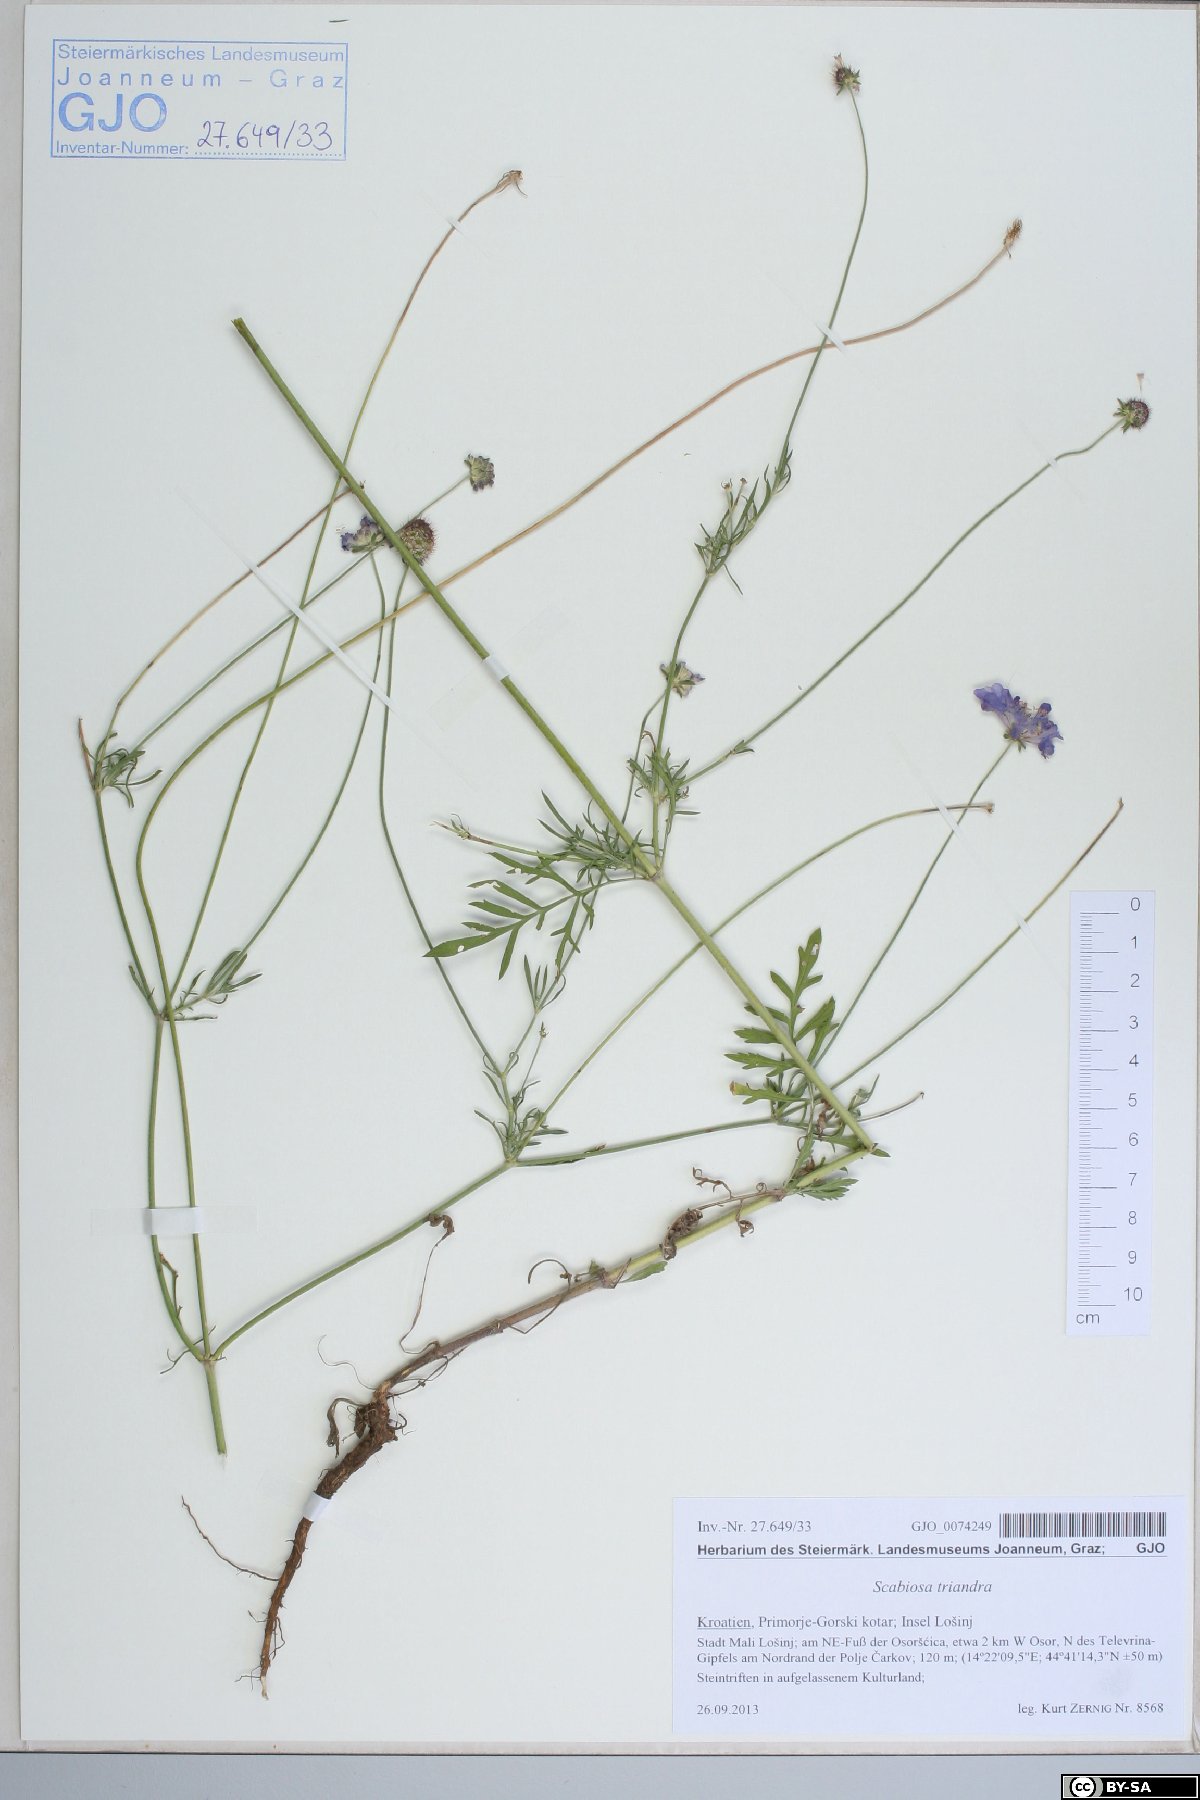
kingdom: Plantae
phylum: Tracheophyta
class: Magnoliopsida
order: Dipsacales
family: Caprifoliaceae
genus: Scabiosa
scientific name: Scabiosa triandra
